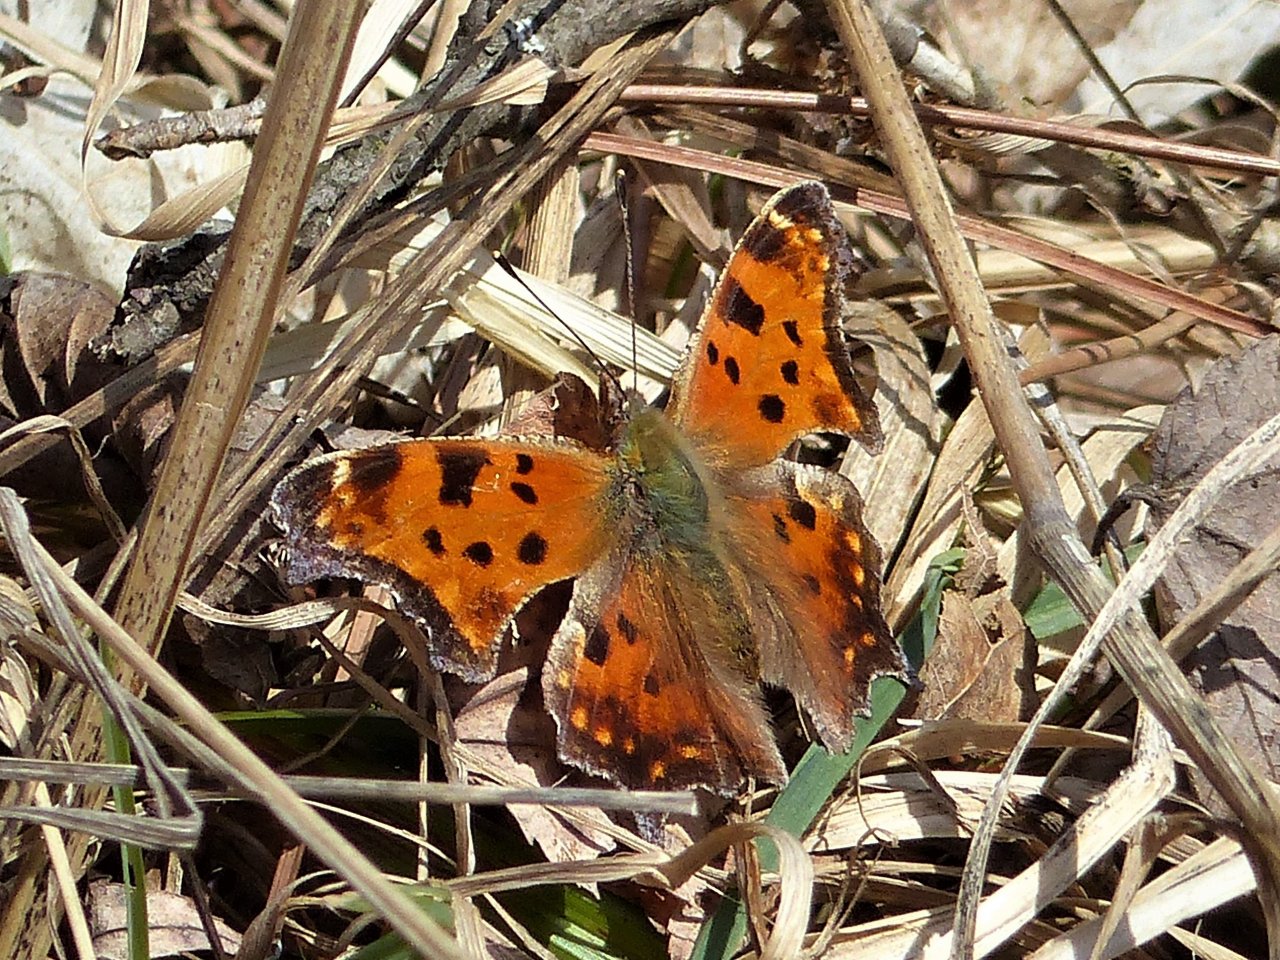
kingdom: Animalia
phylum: Arthropoda
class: Insecta
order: Lepidoptera
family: Nymphalidae
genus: Polygonia
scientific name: Polygonia comma
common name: Eastern Comma
